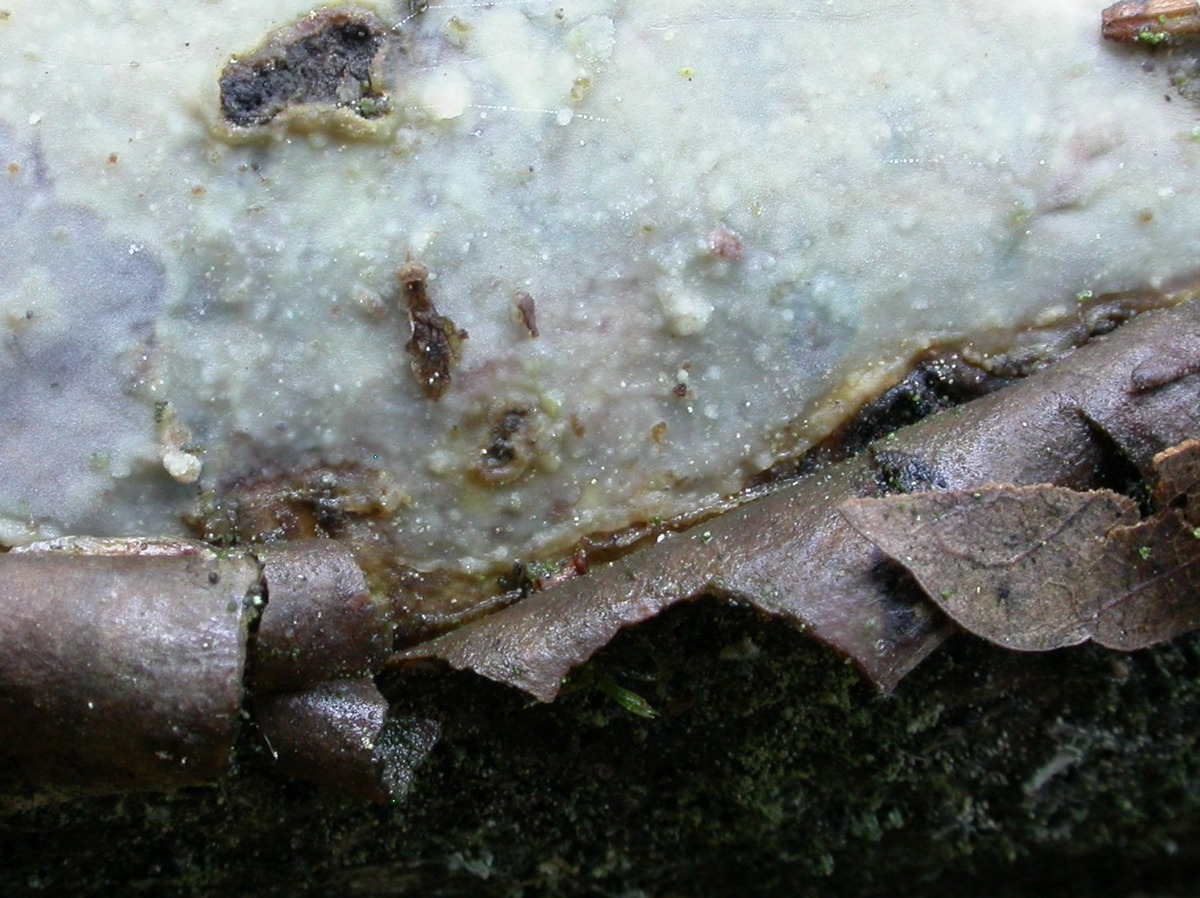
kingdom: Fungi
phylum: Basidiomycota
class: Agaricomycetes
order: Corticiales
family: Vuilleminiaceae
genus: Vuilleminia
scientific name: Vuilleminia comedens
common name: almindelig barksprænger
